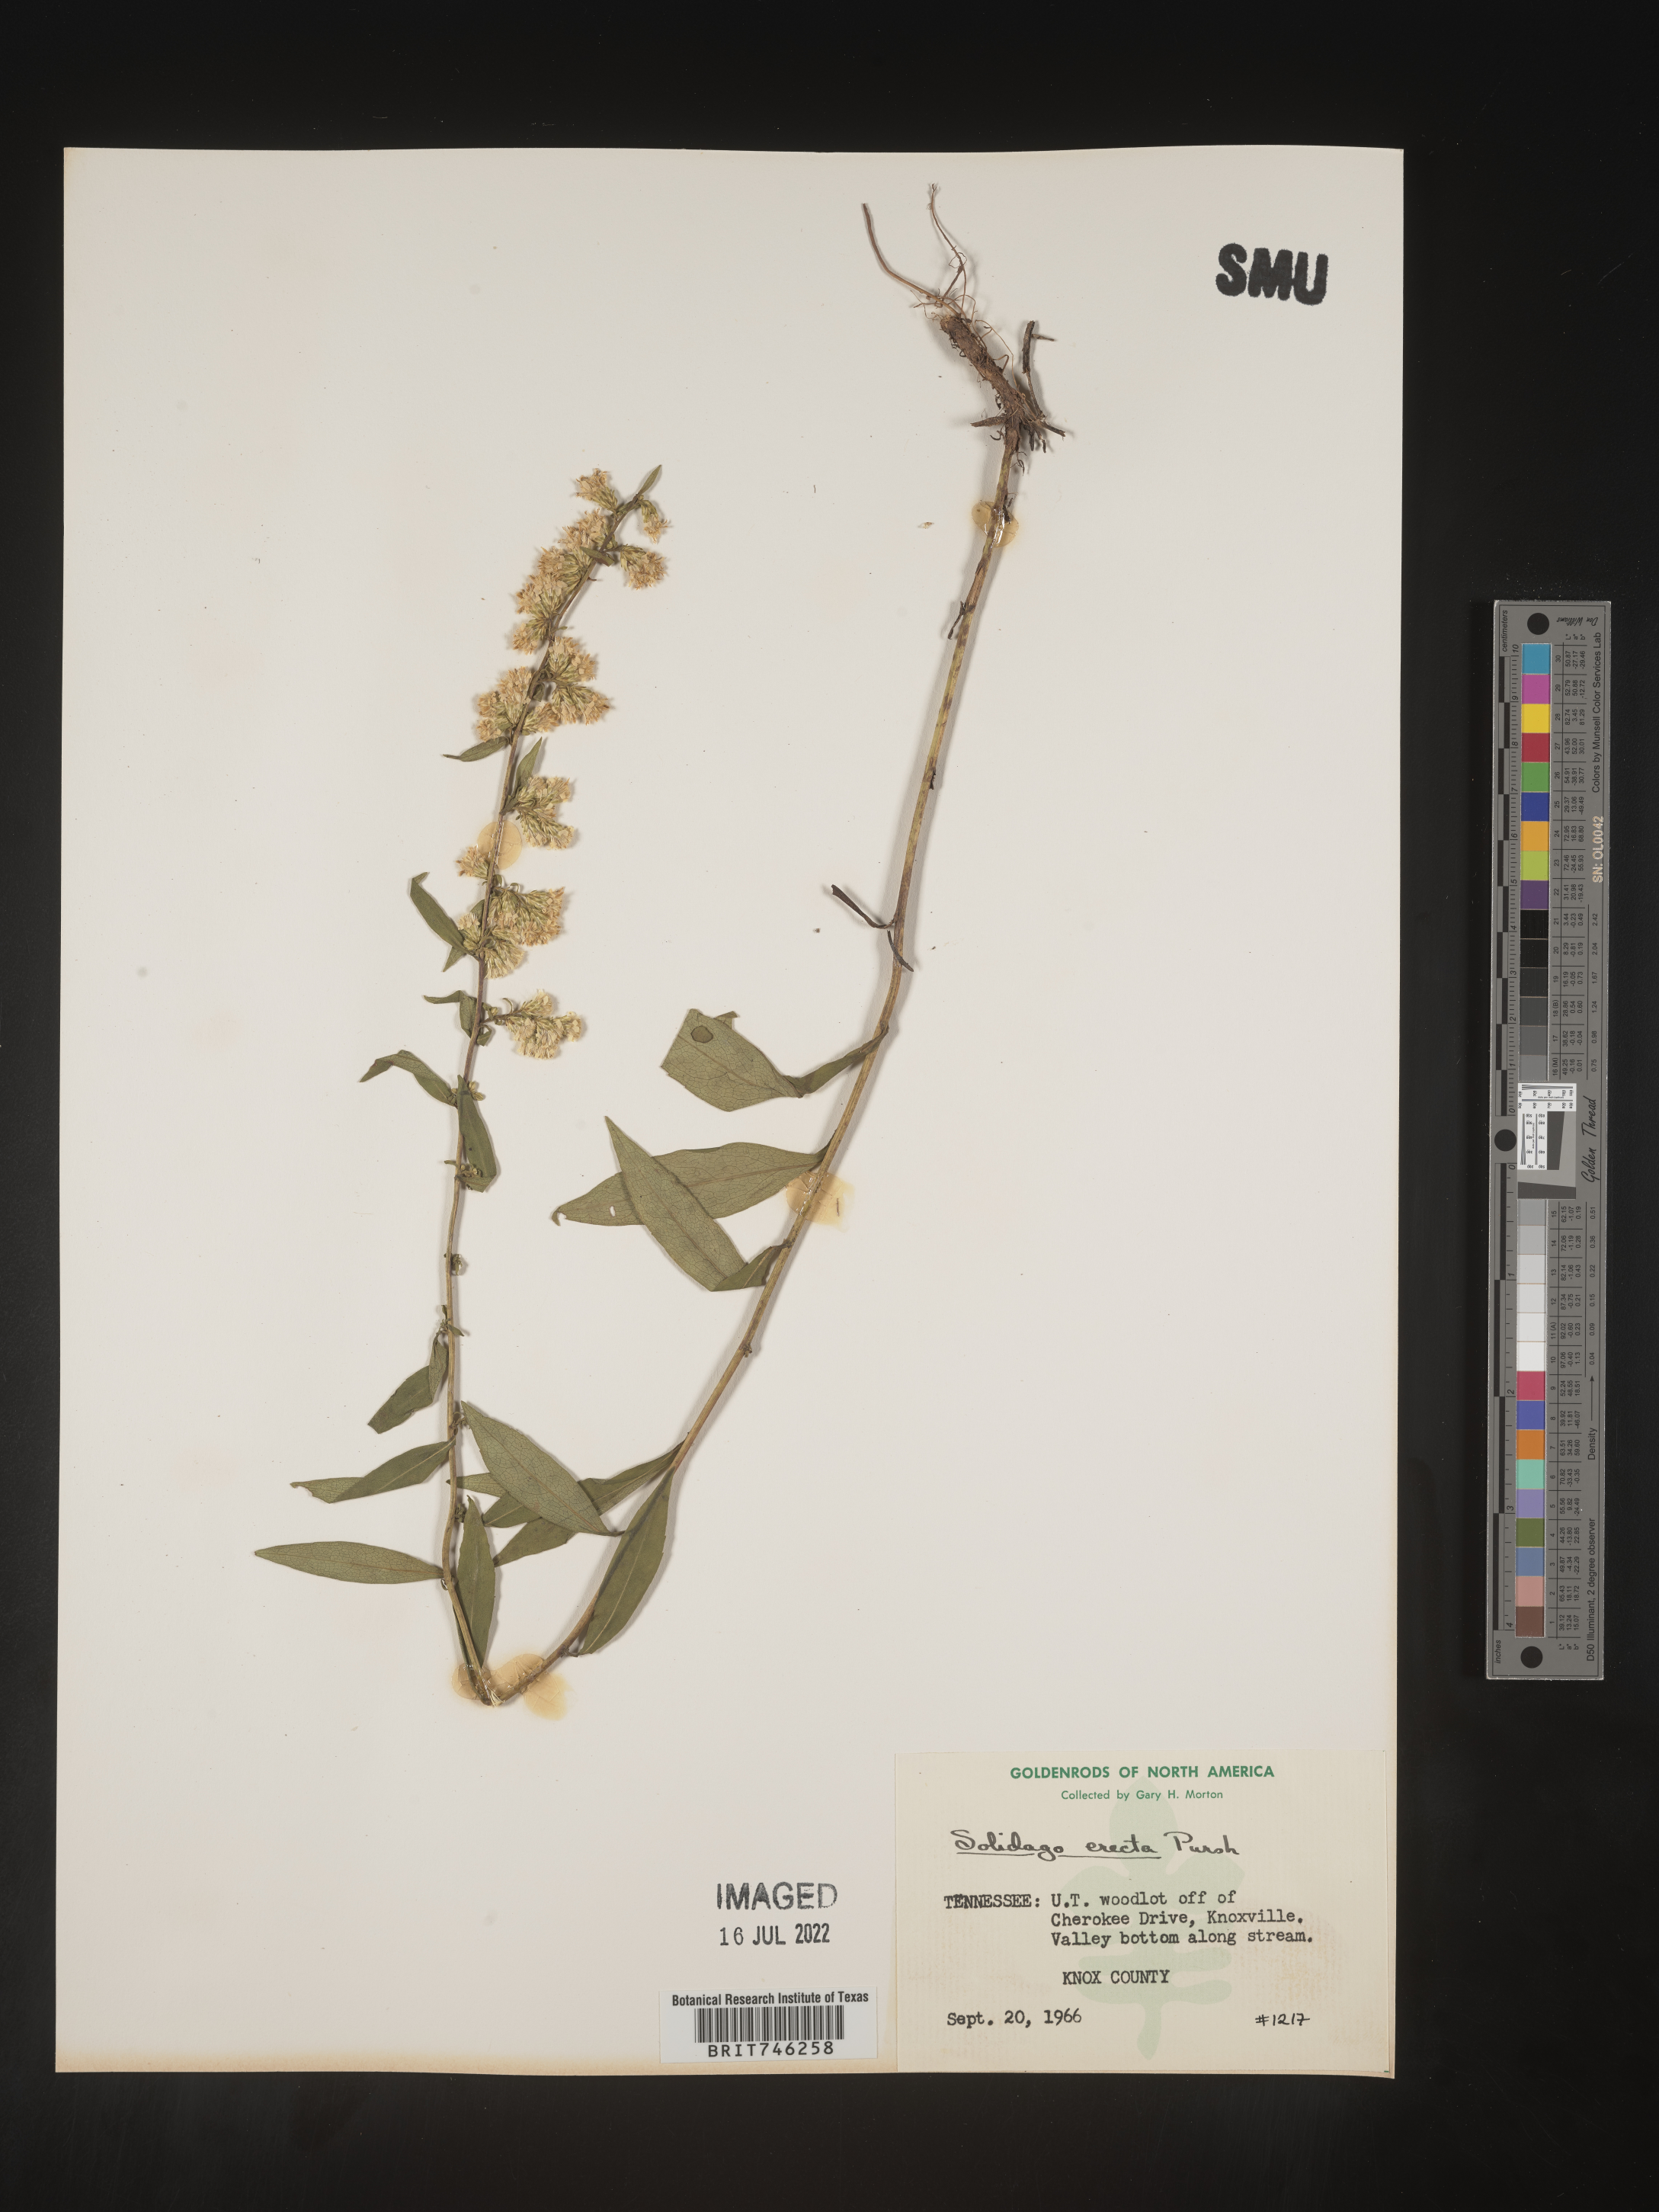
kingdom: Plantae
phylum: Tracheophyta
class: Magnoliopsida
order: Asterales
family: Asteraceae
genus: Solidago
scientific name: Solidago erecta
